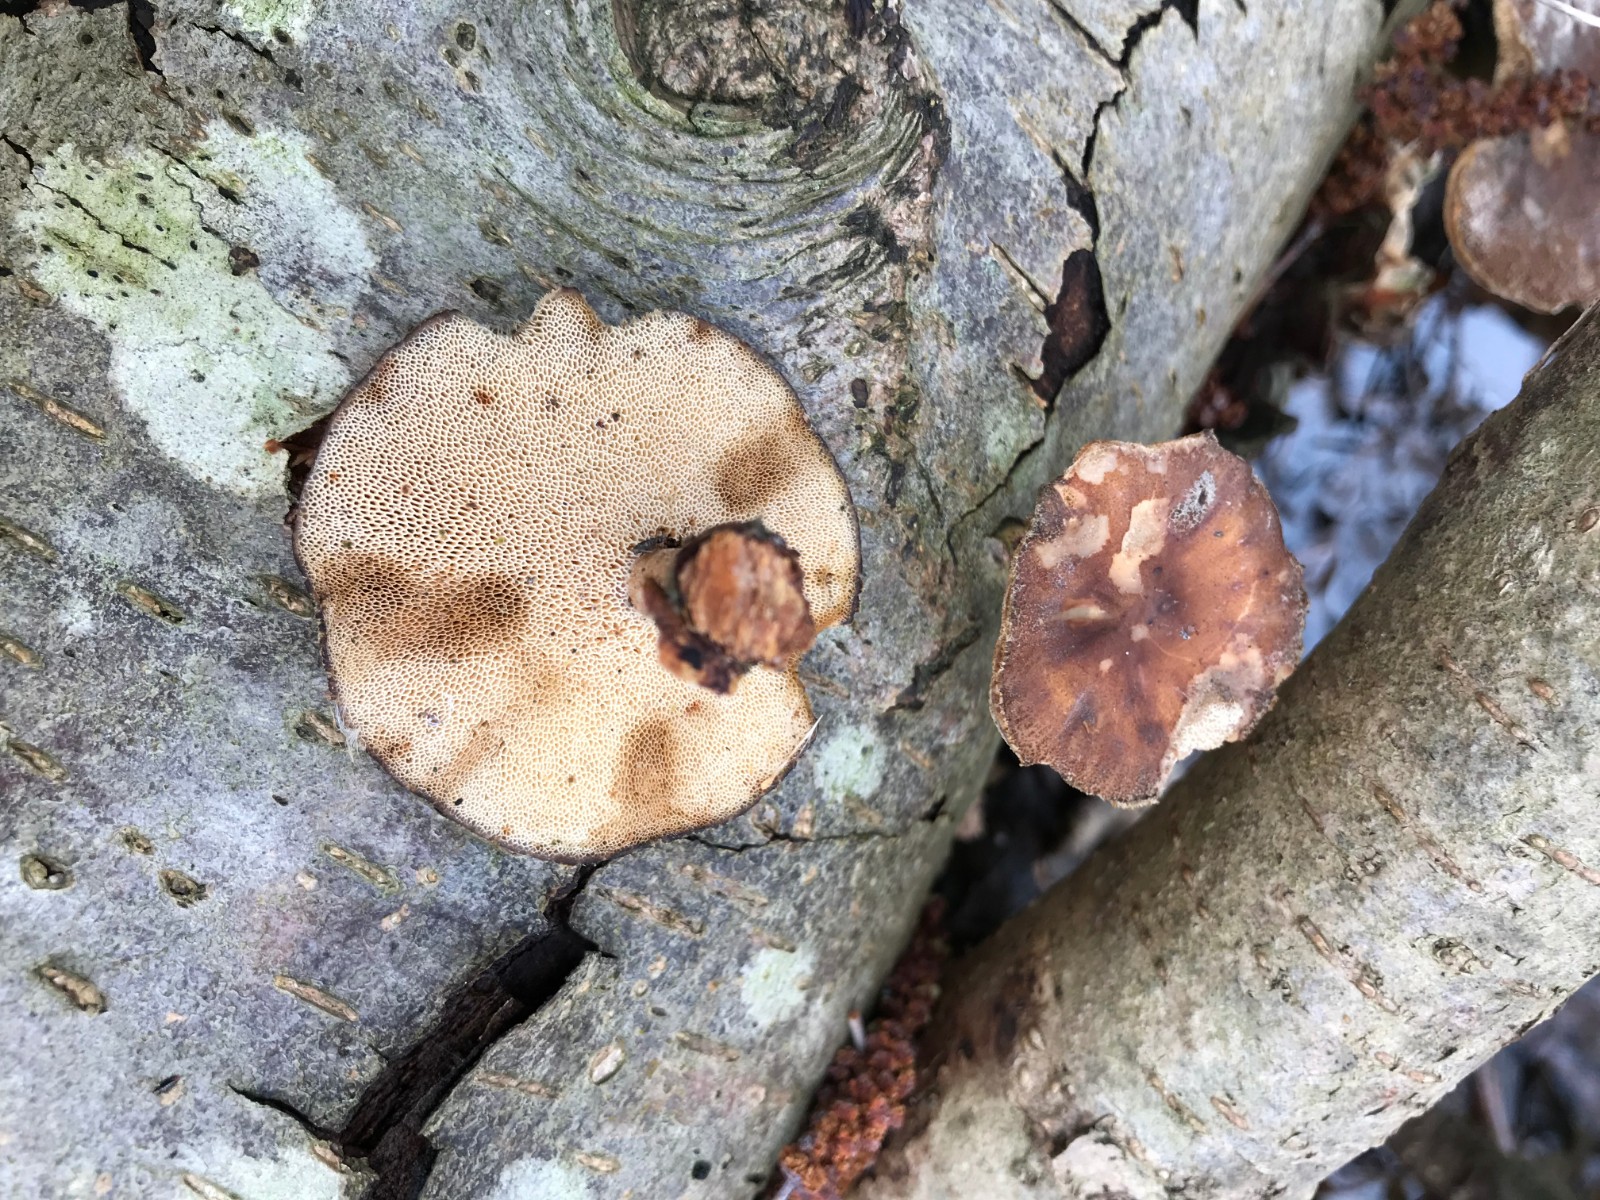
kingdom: Fungi
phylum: Basidiomycota
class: Agaricomycetes
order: Polyporales
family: Polyporaceae
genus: Lentinus
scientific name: Lentinus brumalis
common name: vinter-stilkporesvamp
